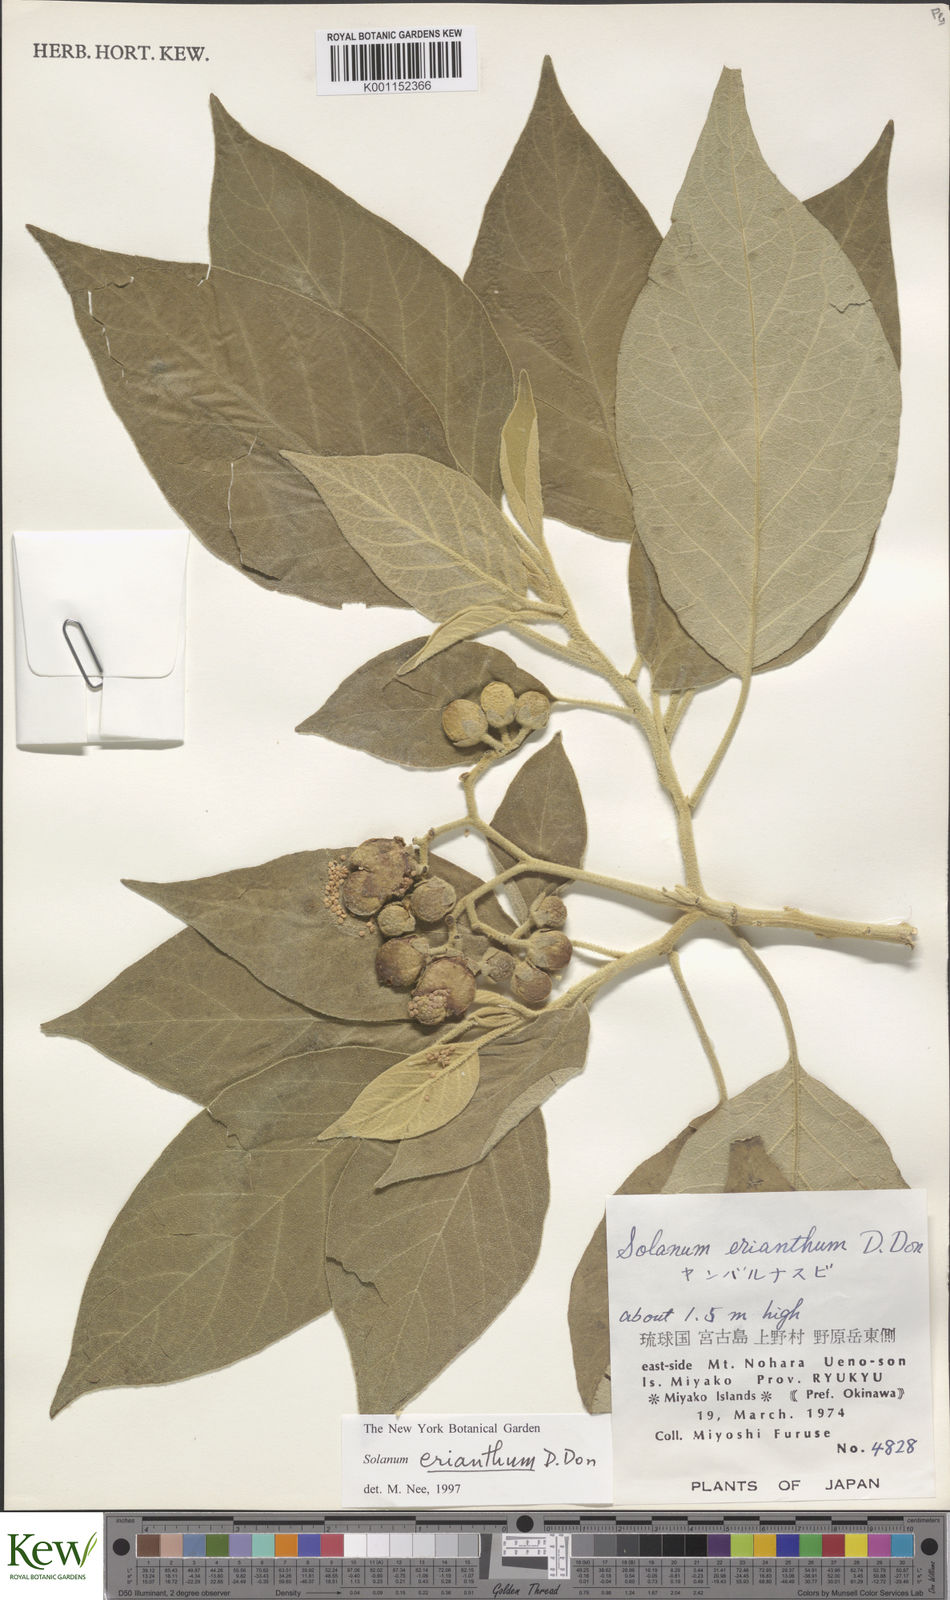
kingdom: Plantae
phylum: Tracheophyta
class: Magnoliopsida
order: Solanales
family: Solanaceae
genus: Solanum
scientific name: Solanum erianthum
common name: Tobacco-tree
